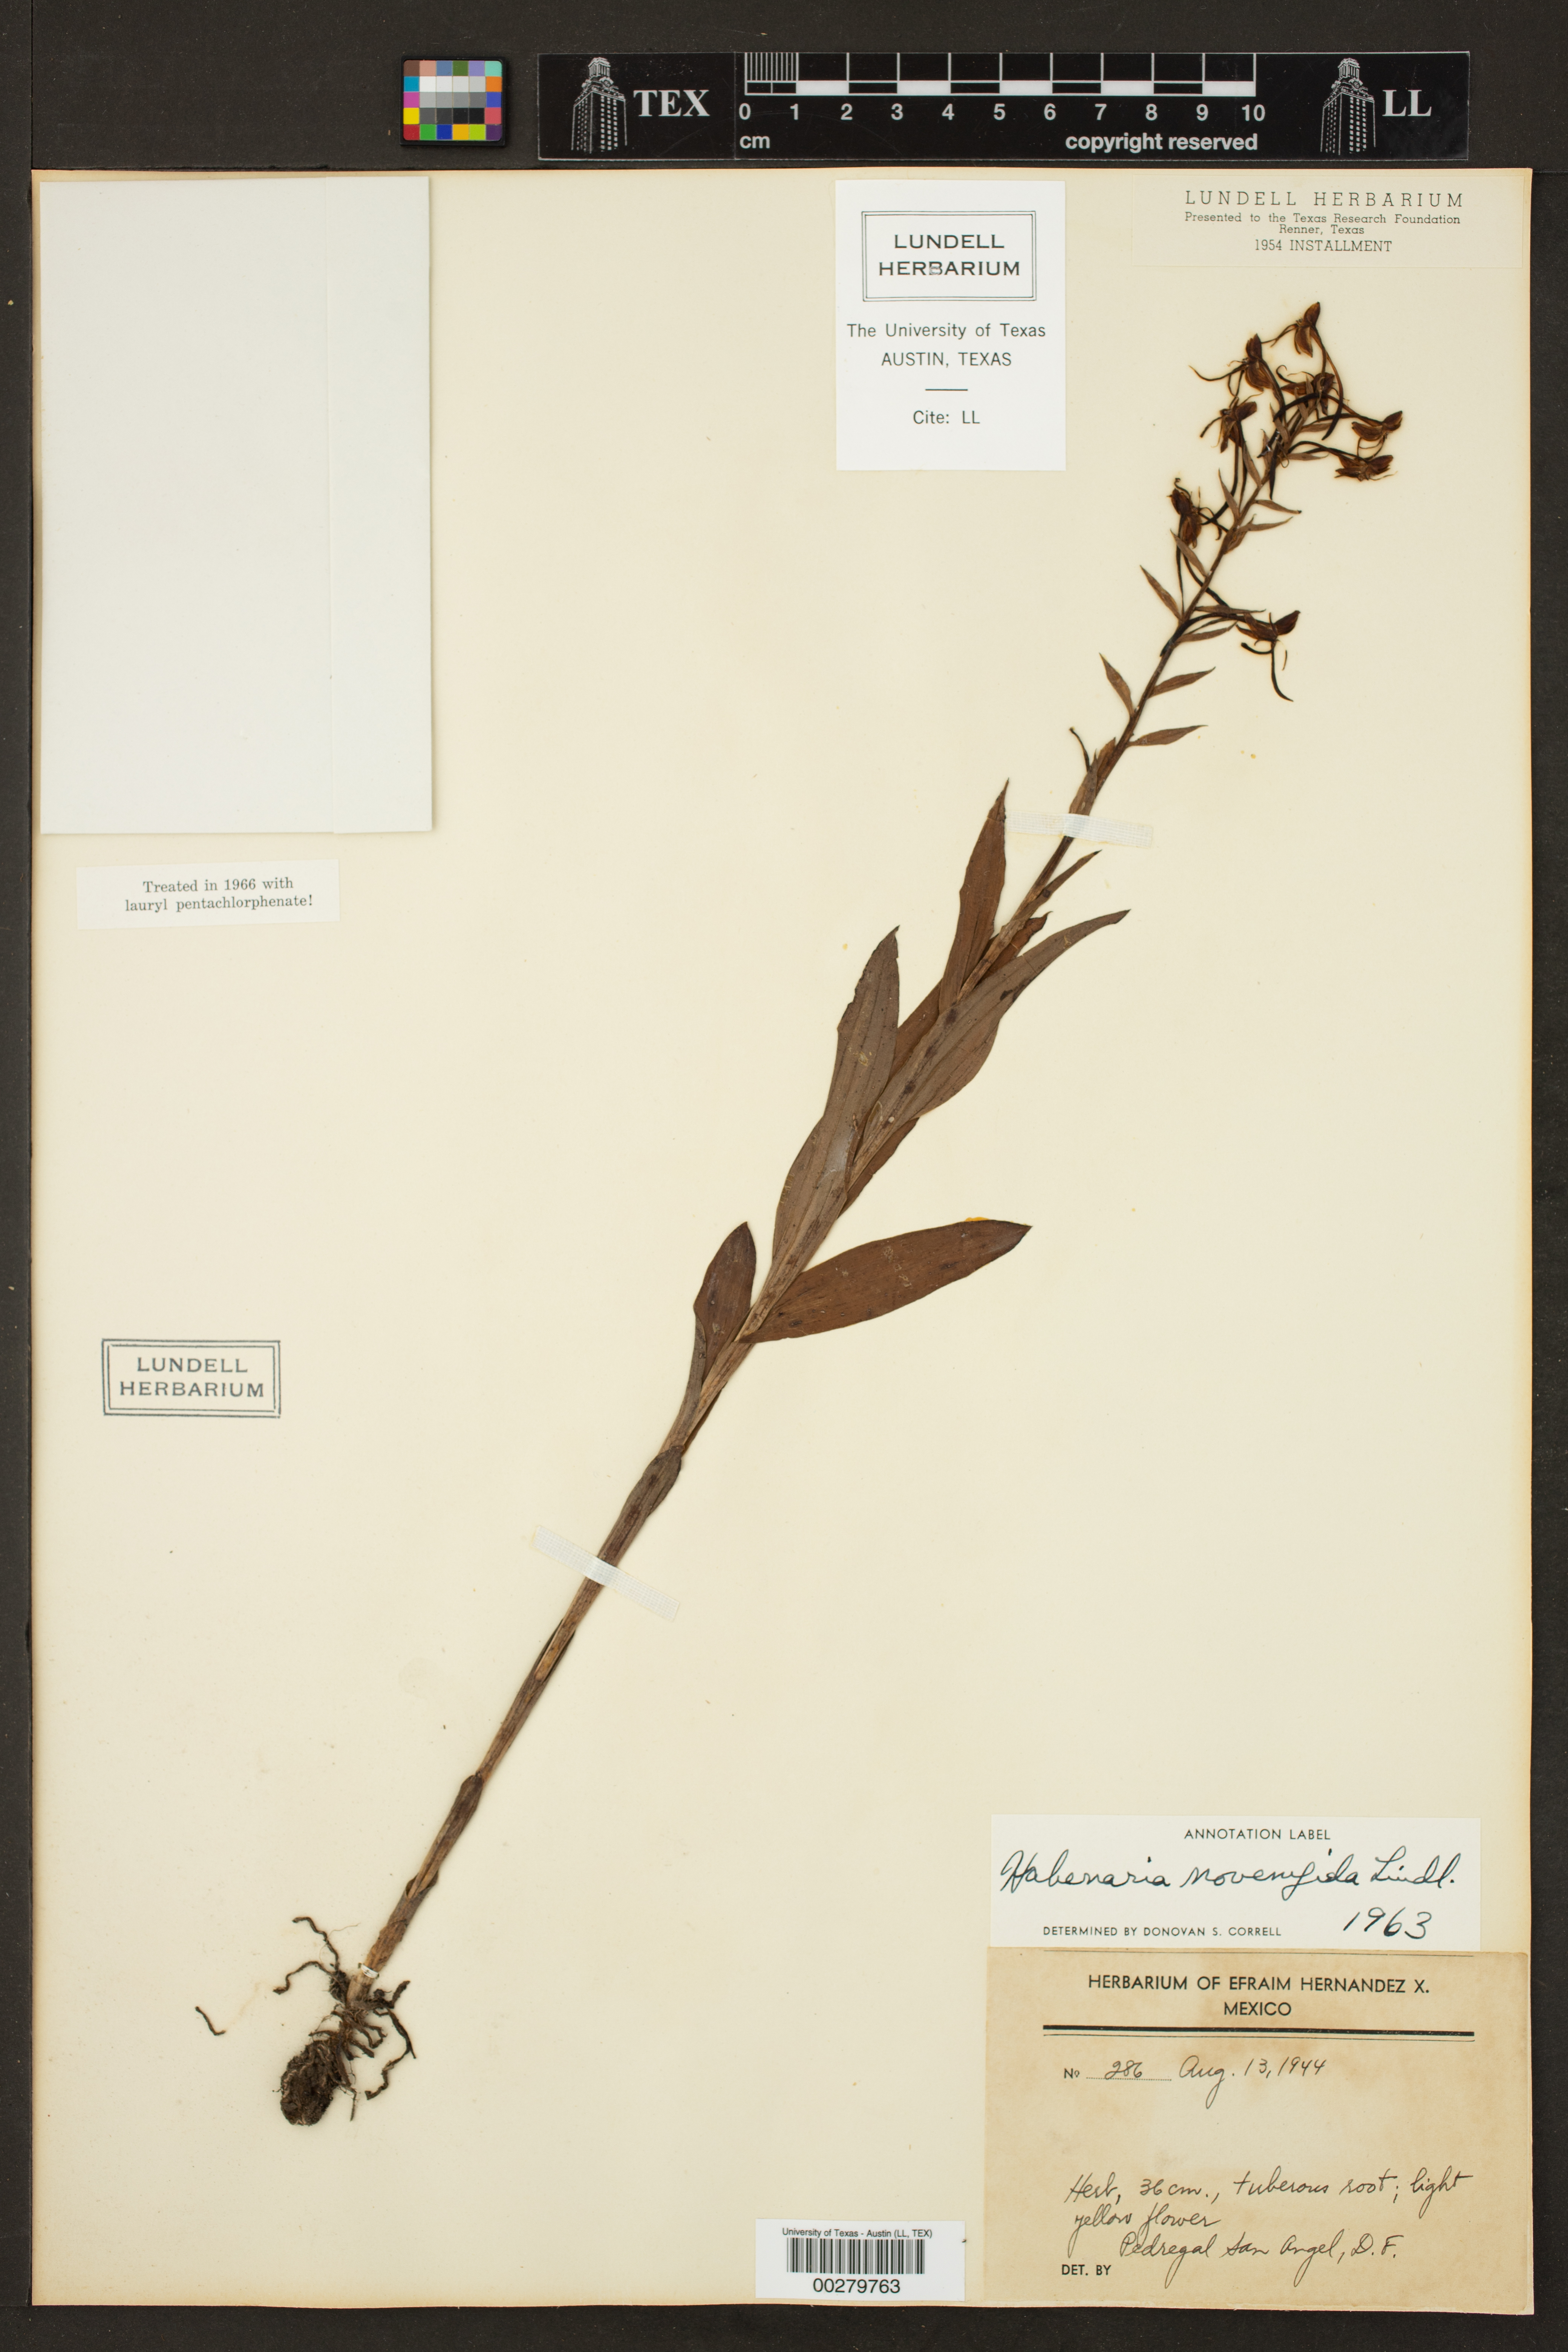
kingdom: Plantae
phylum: Tracheophyta
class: Liliopsida
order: Asparagales
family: Orchidaceae
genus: Habenaria
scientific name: Habenaria novemfida
